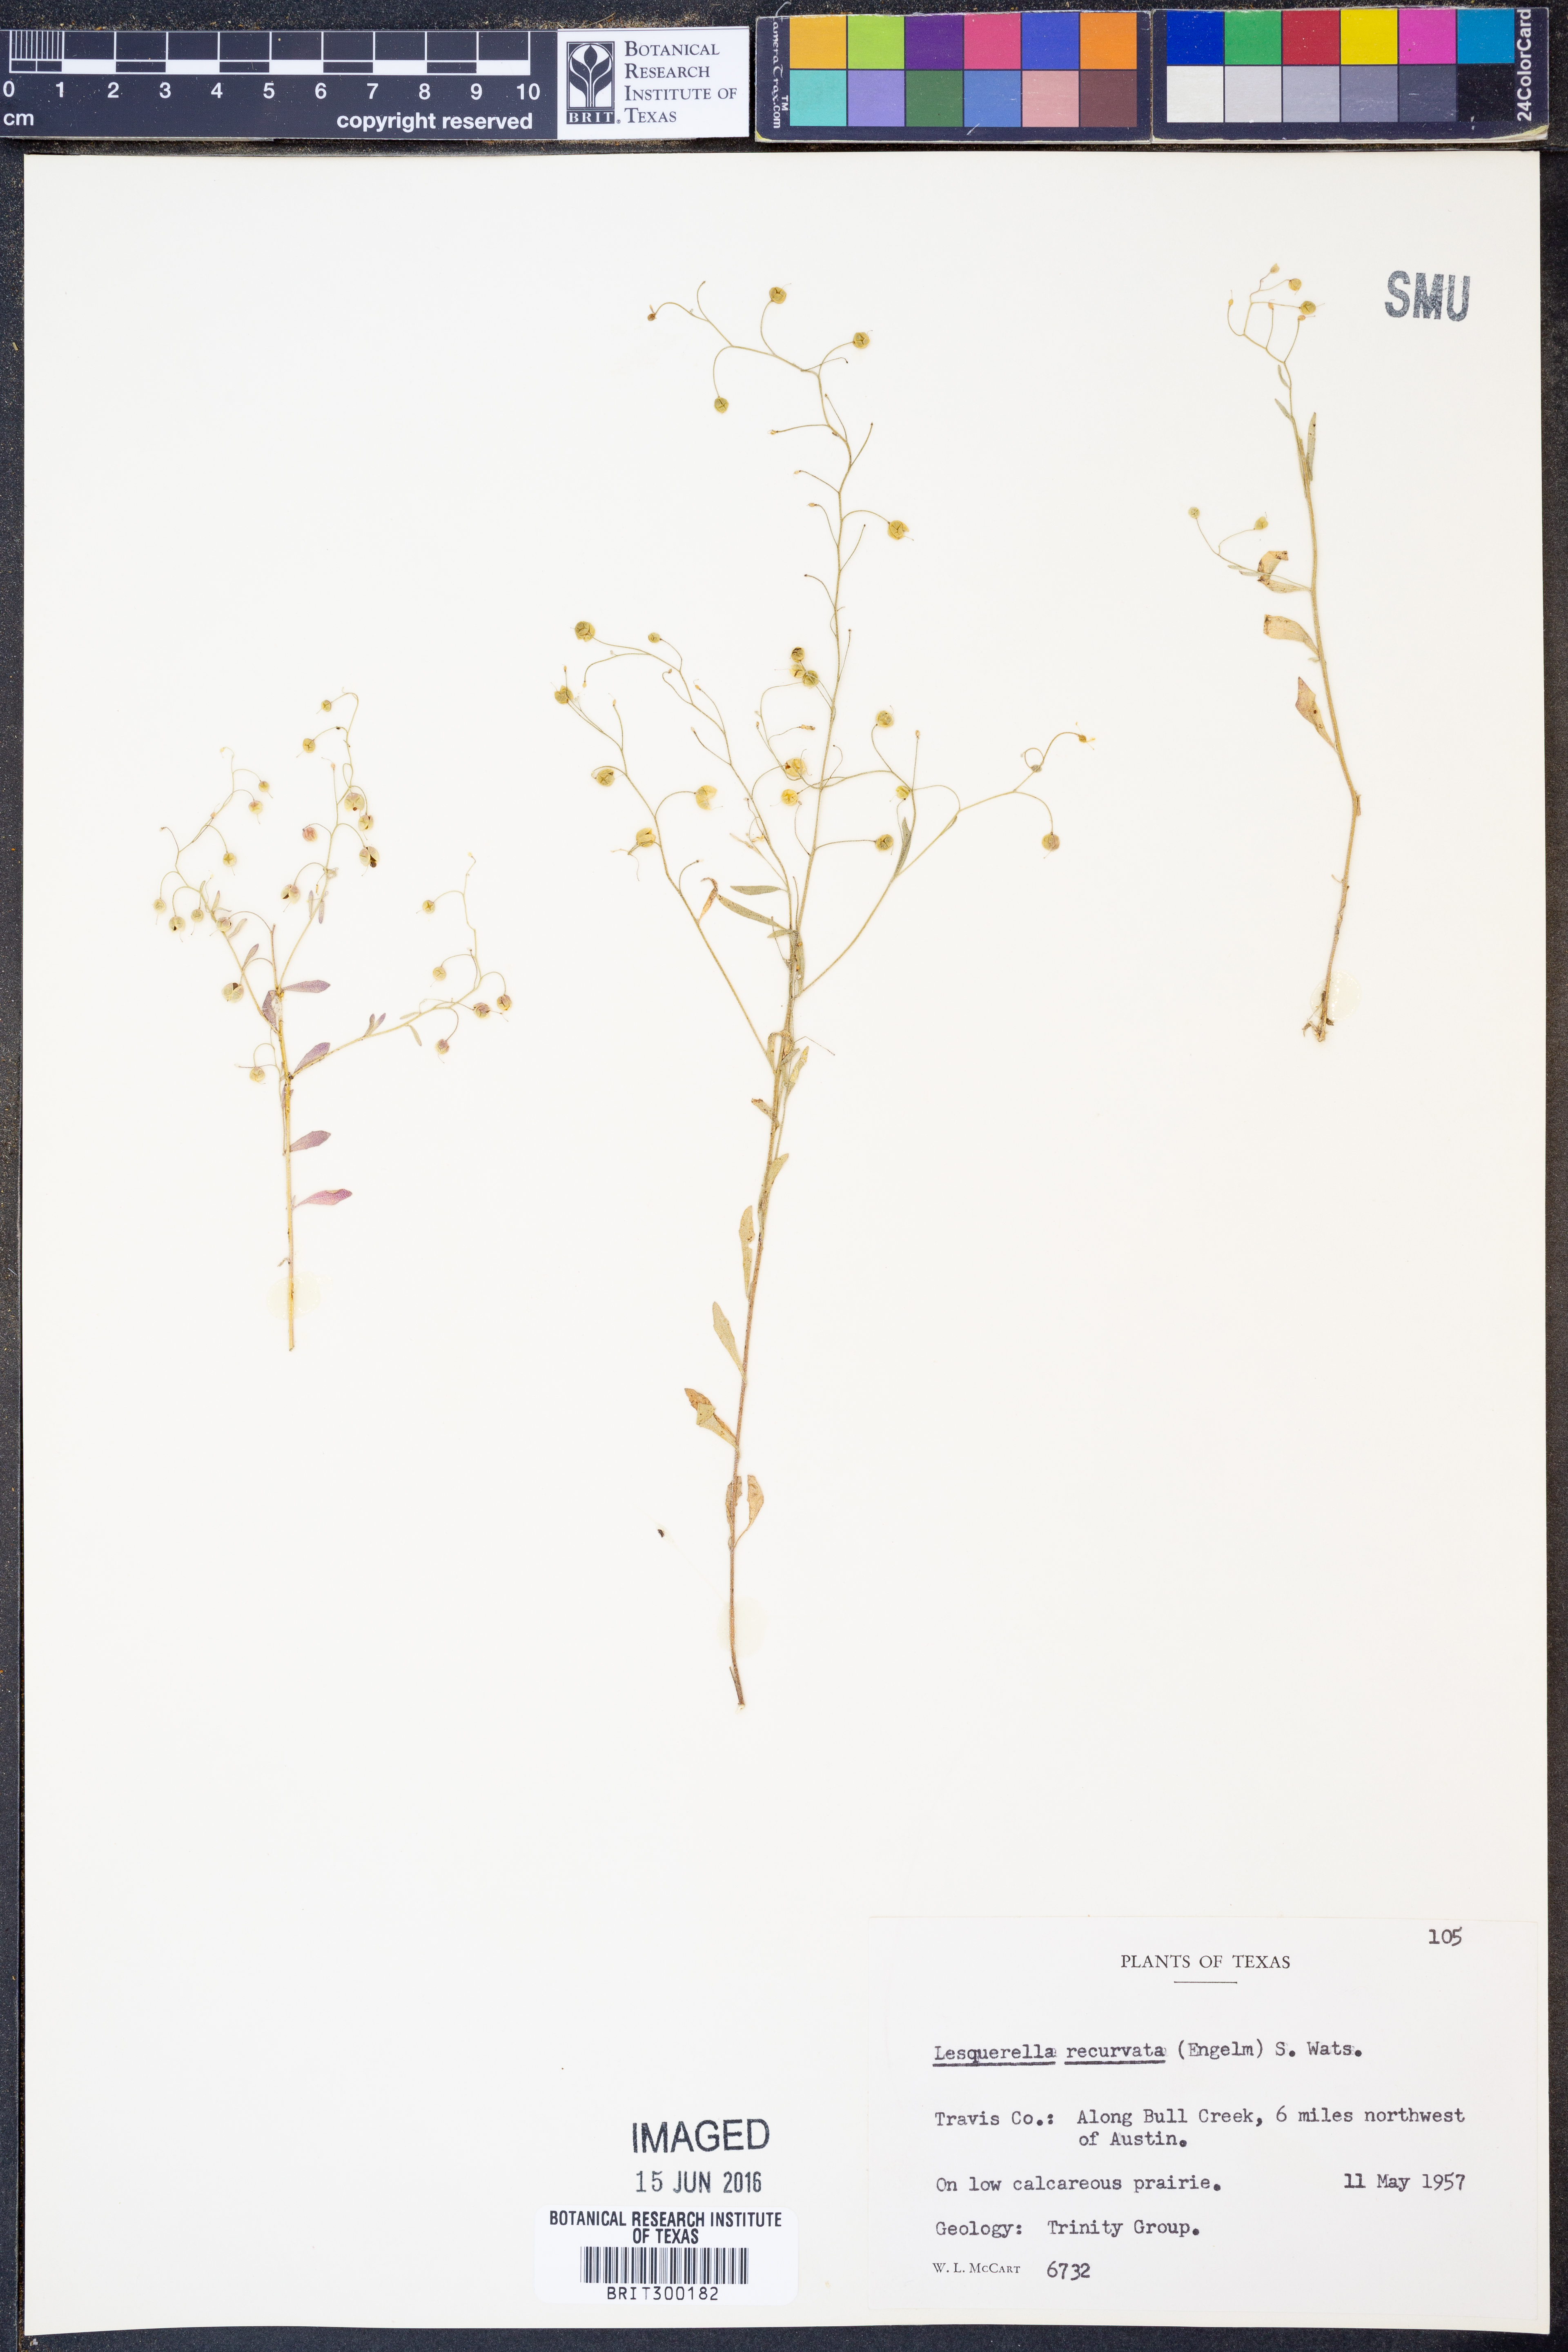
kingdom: Plantae
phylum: Tracheophyta
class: Magnoliopsida
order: Brassicales
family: Brassicaceae
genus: Physaria
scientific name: Physaria recurvata
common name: Gaslight bladderpod
